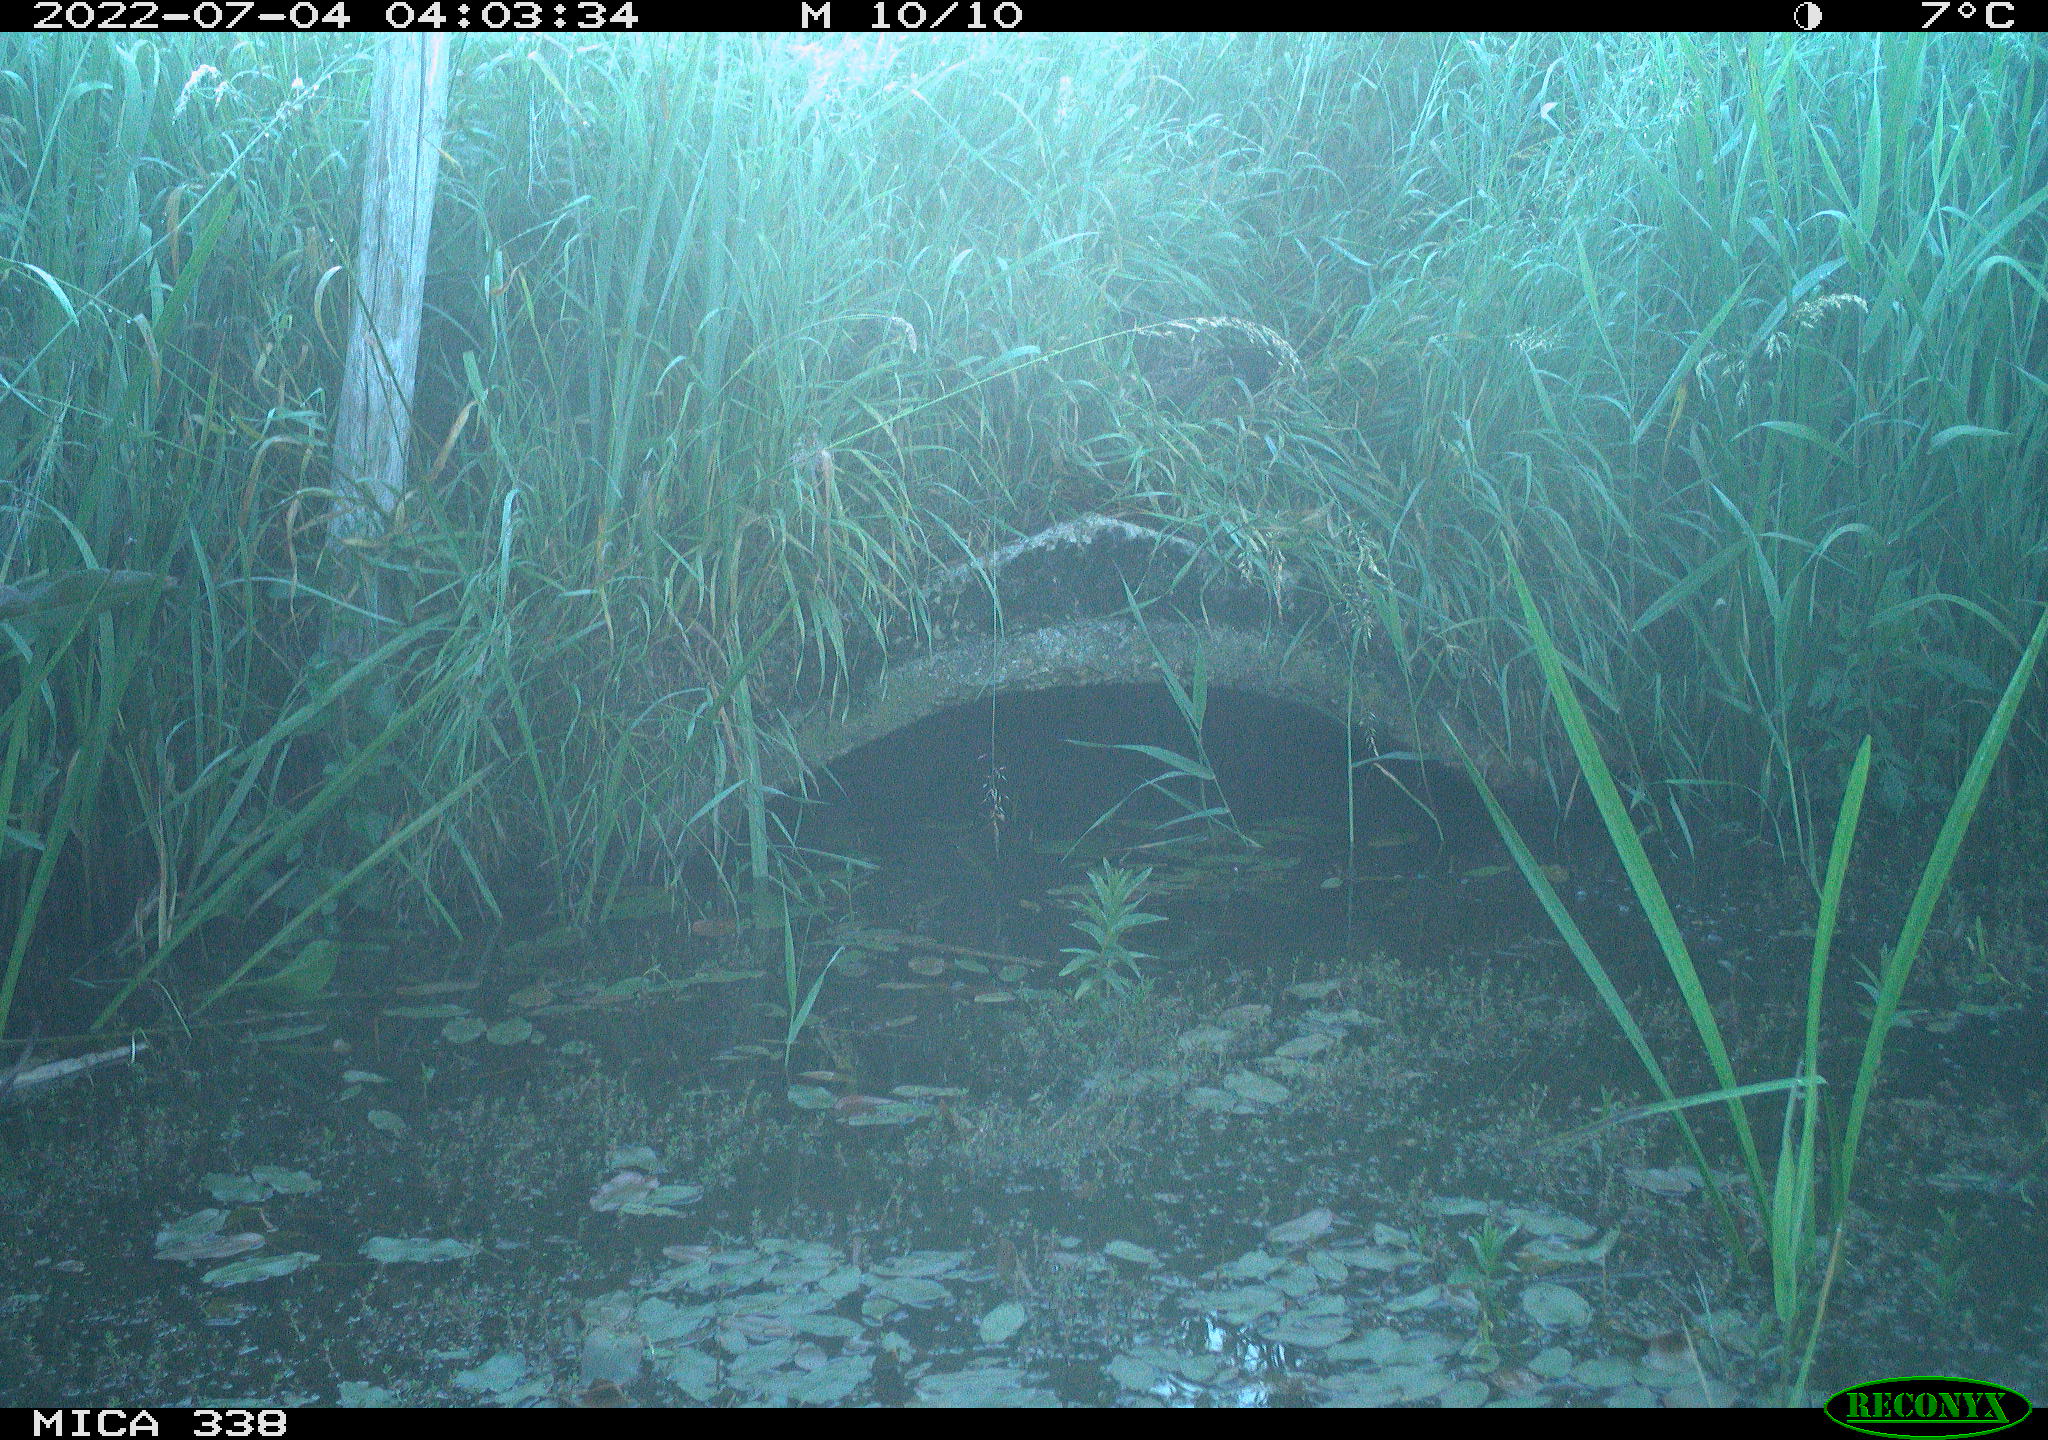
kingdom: Animalia
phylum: Chordata
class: Mammalia
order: Carnivora
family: Mustelidae
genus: Lutra
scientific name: Lutra lutra
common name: European otter
